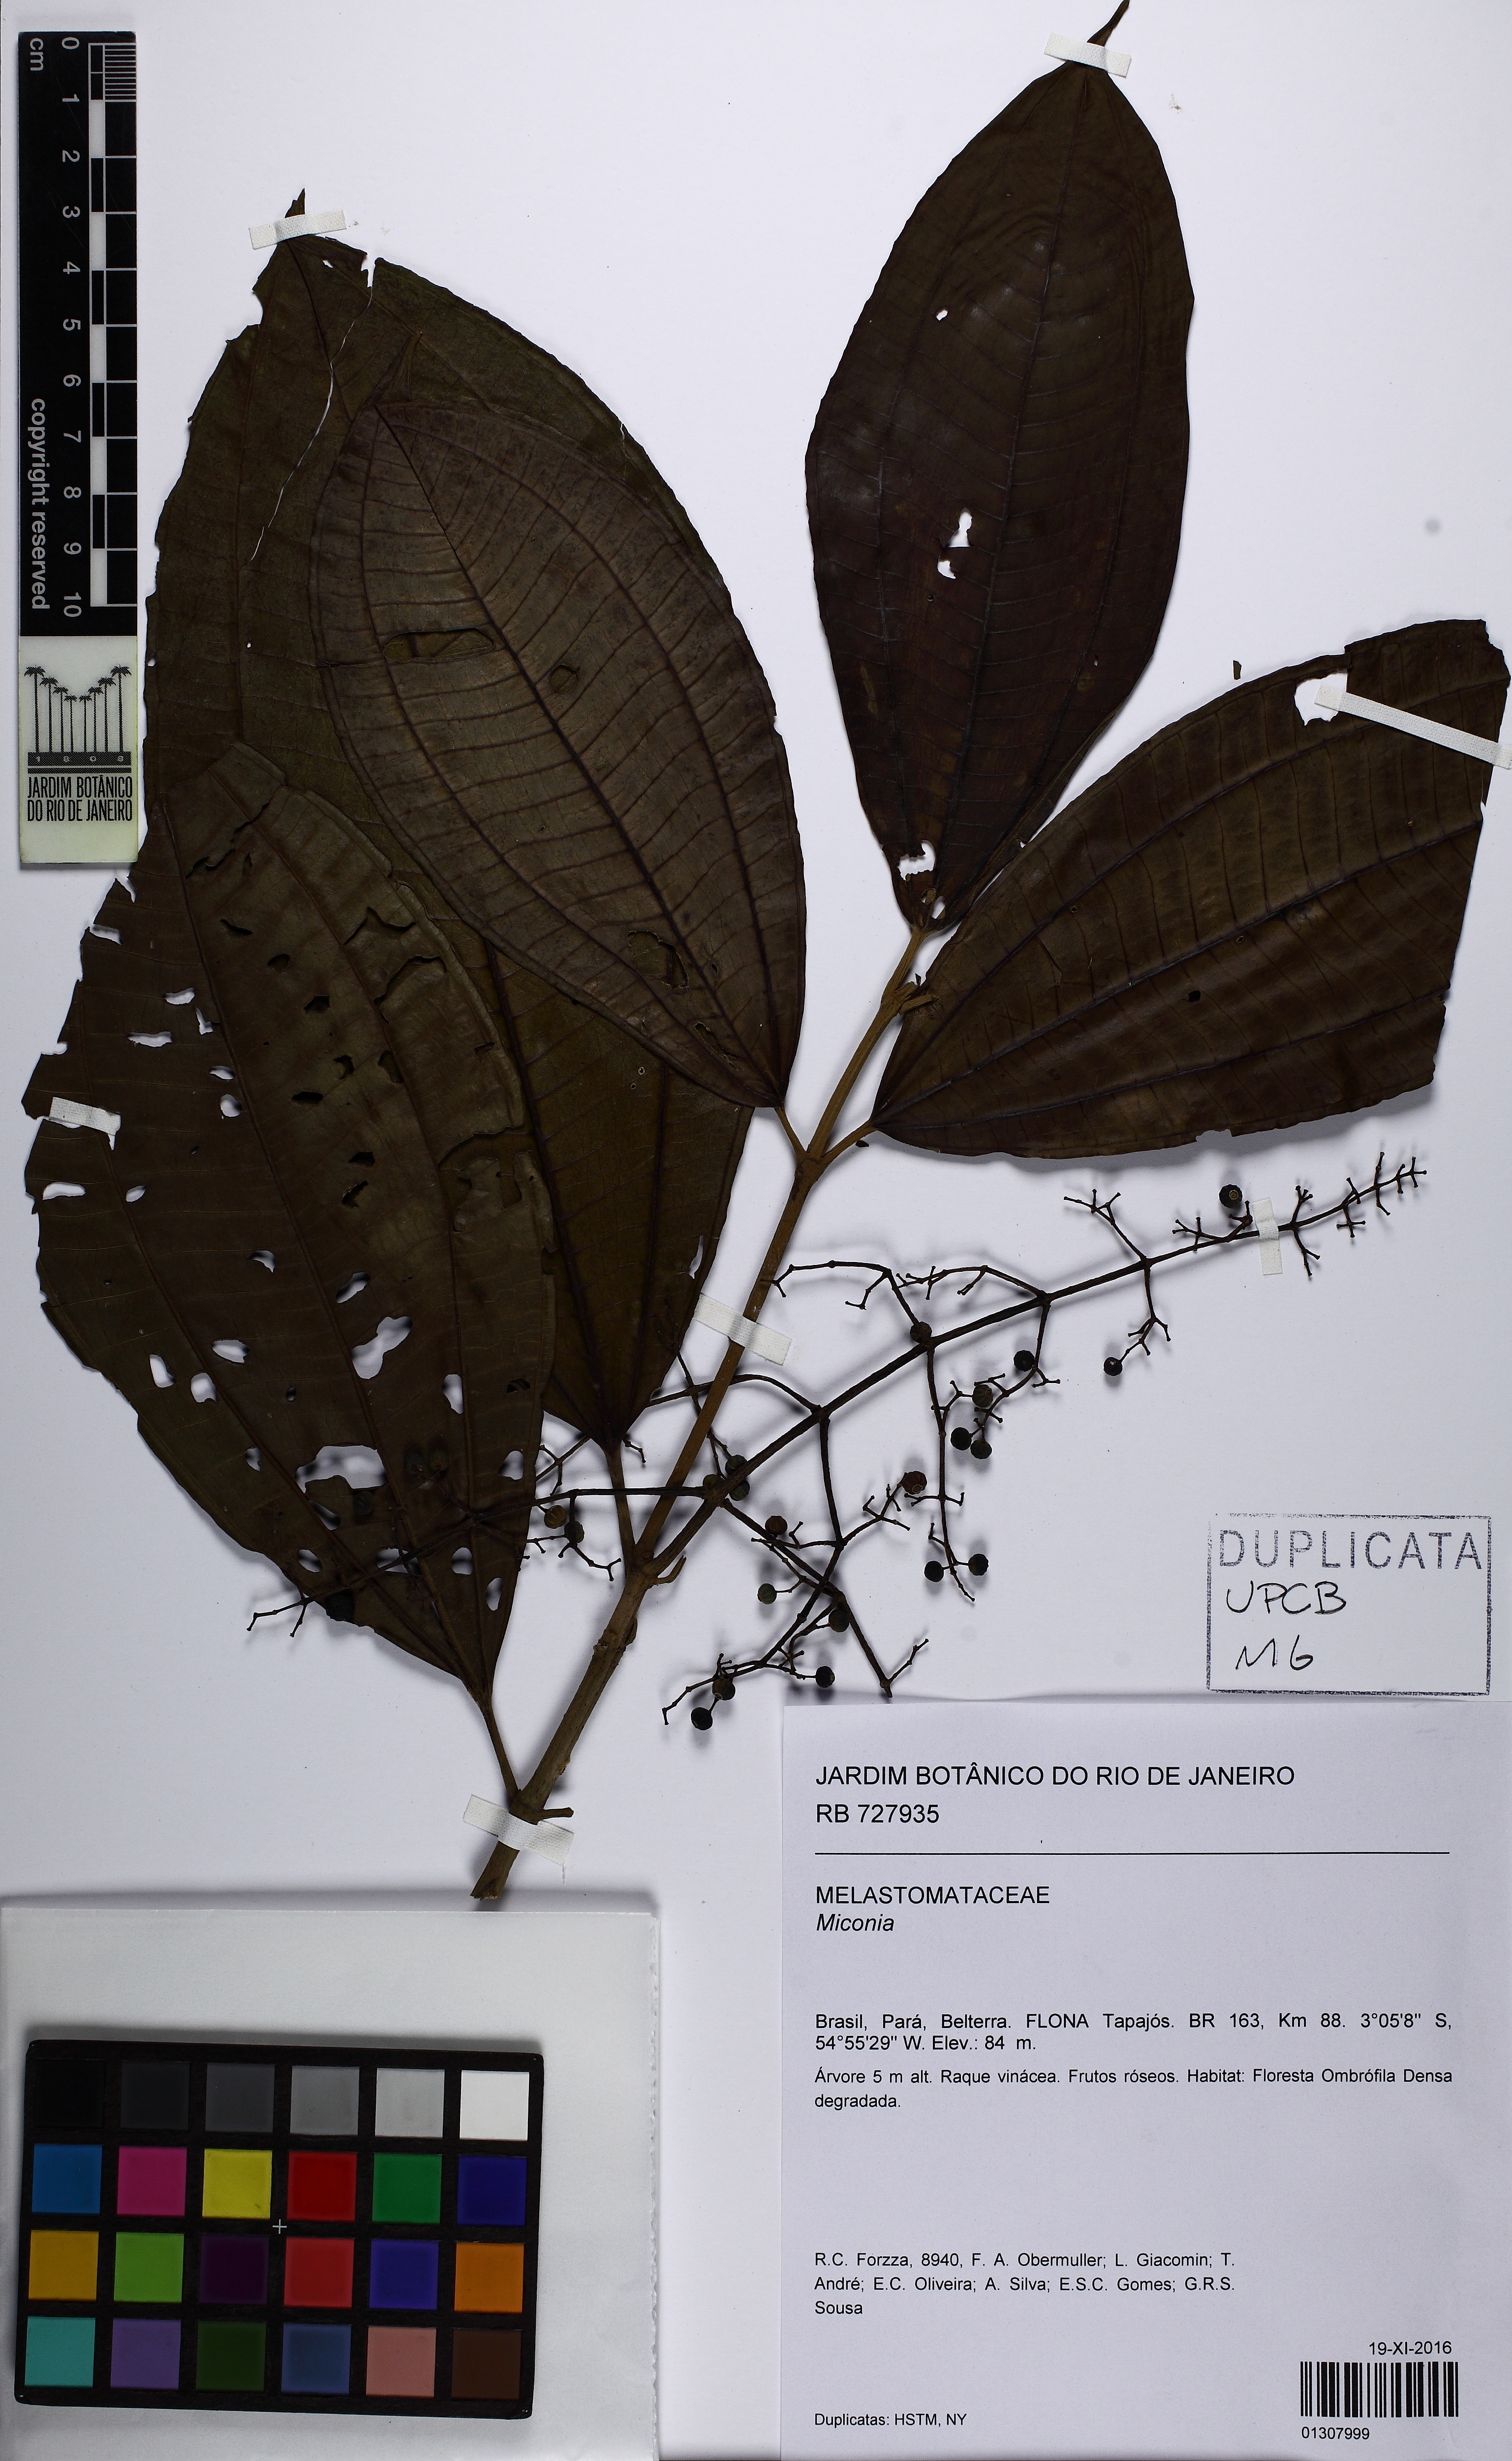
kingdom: Plantae
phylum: Tracheophyta
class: Magnoliopsida
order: Myrtales
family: Melastomataceae
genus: Miconia
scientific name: Miconia affinis
